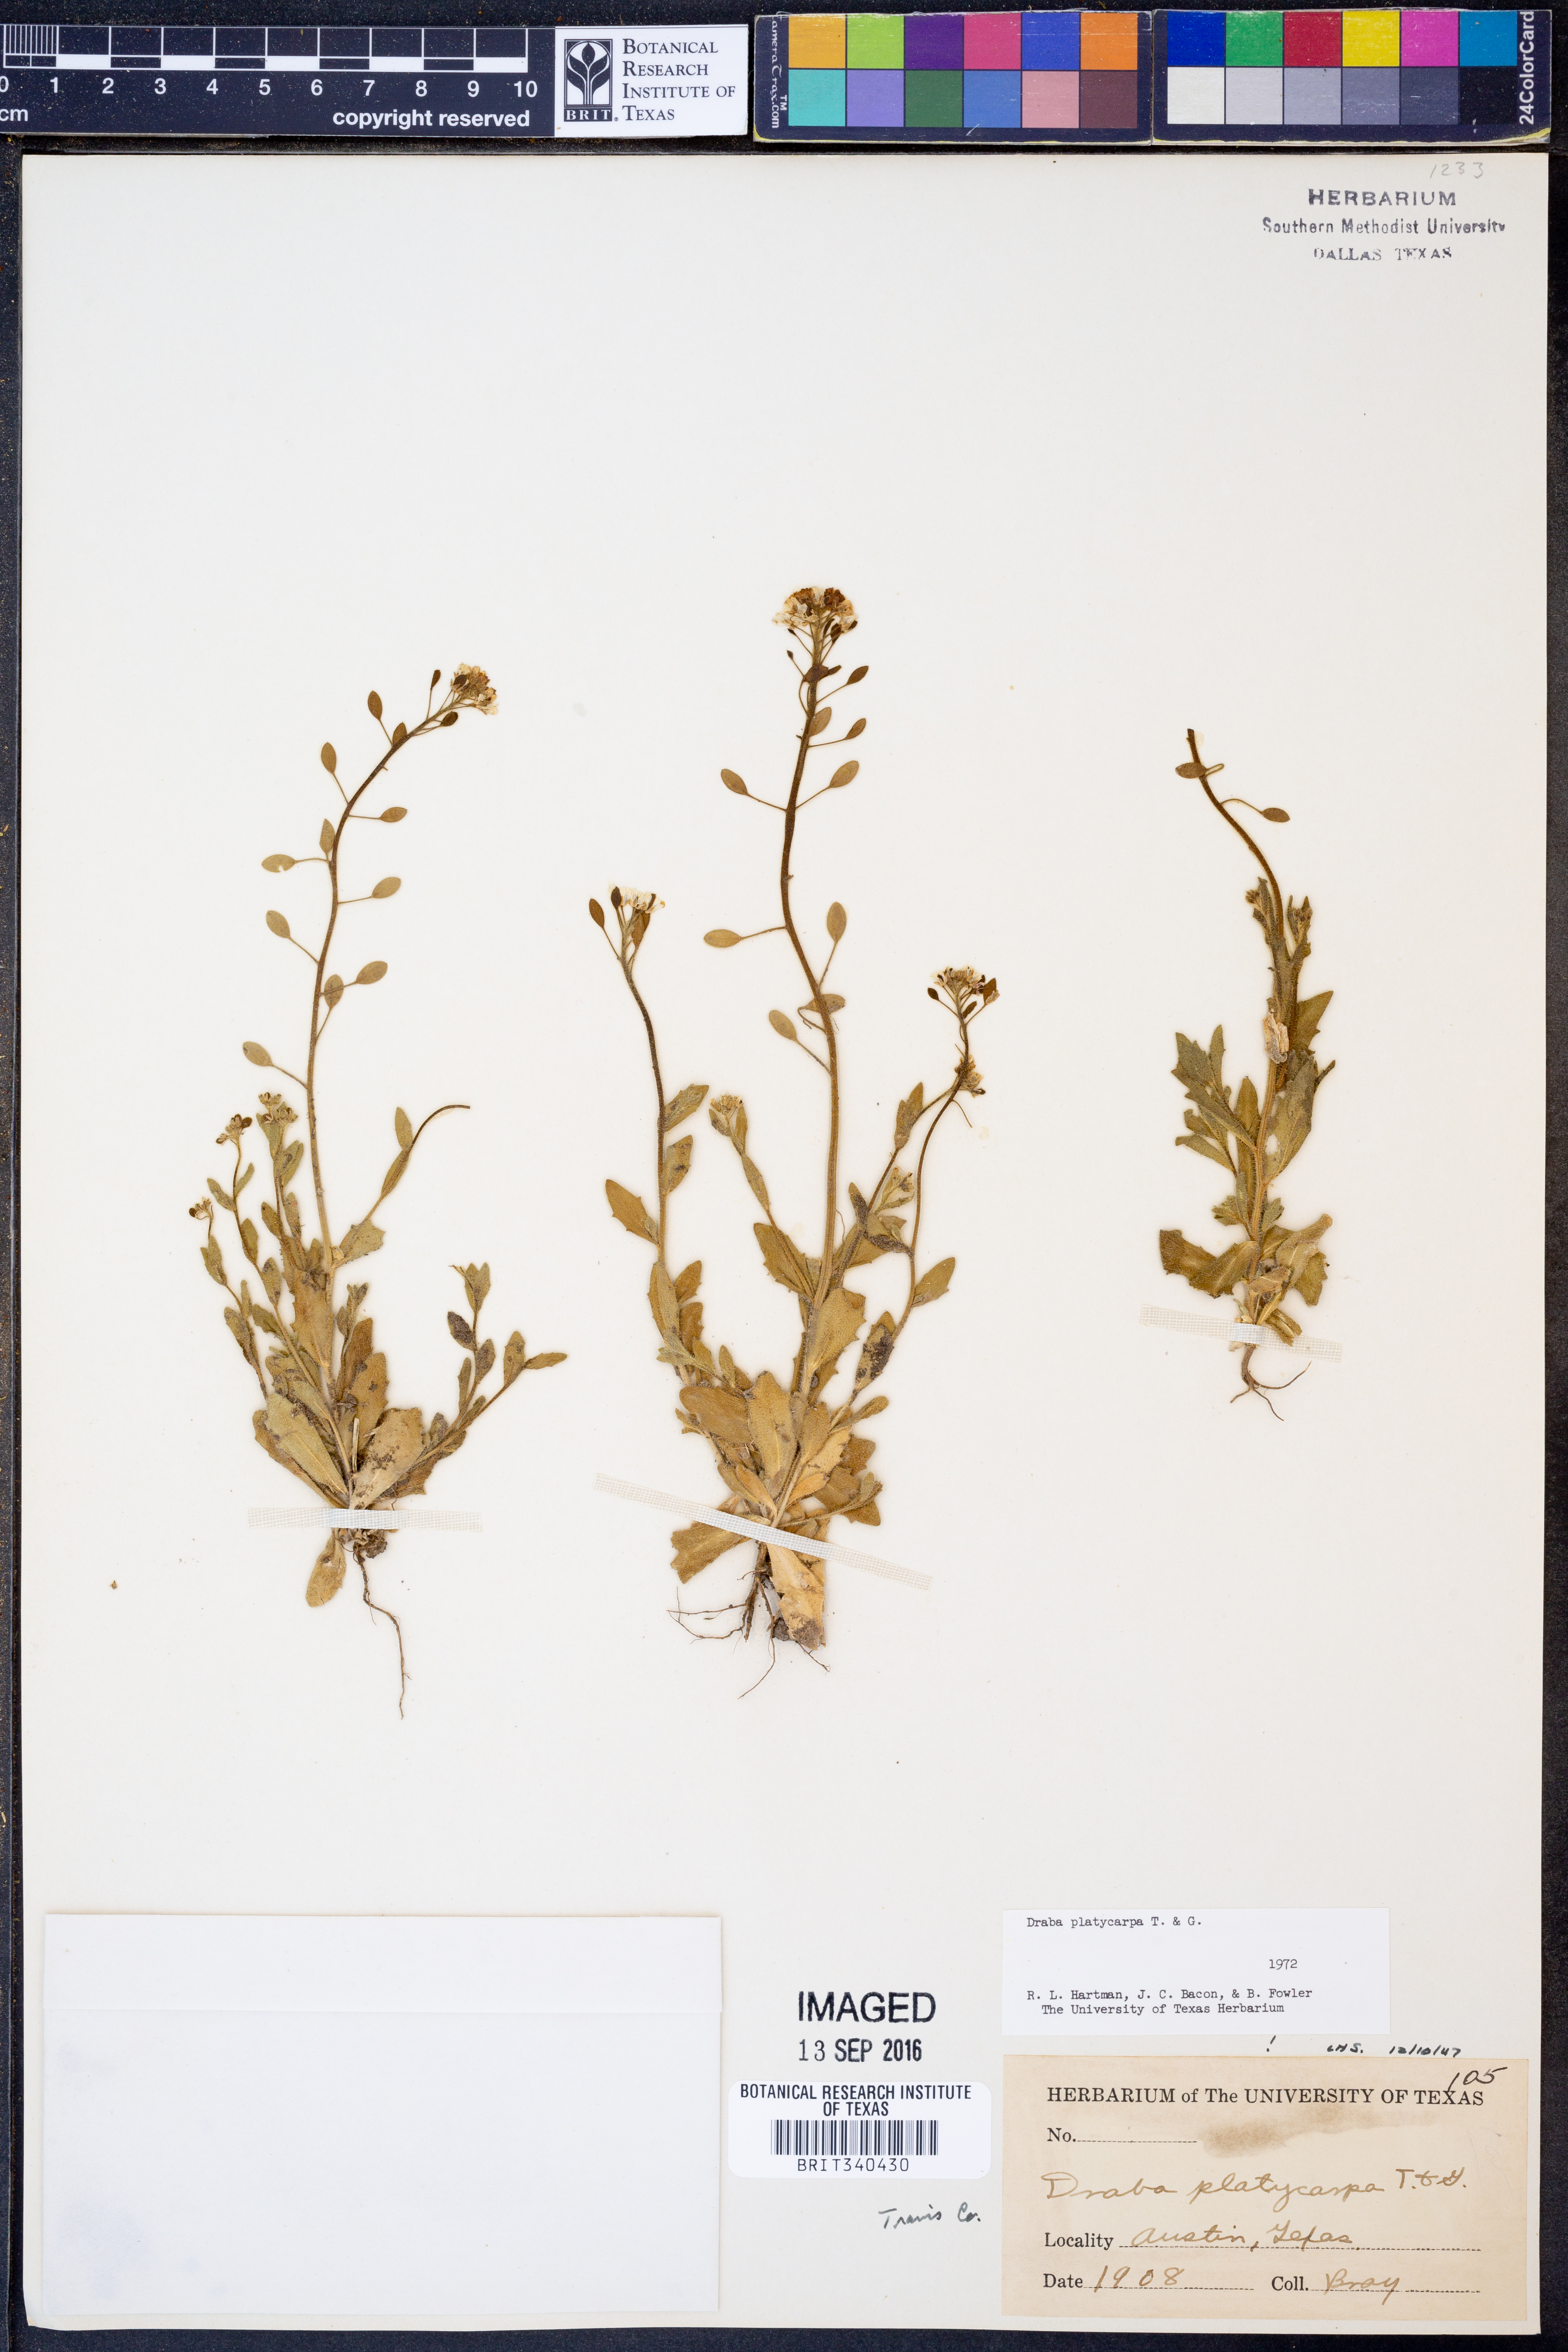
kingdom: Plantae
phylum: Tracheophyta
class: Magnoliopsida
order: Brassicales
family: Brassicaceae
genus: Tomostima
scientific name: Tomostima platycarpa
